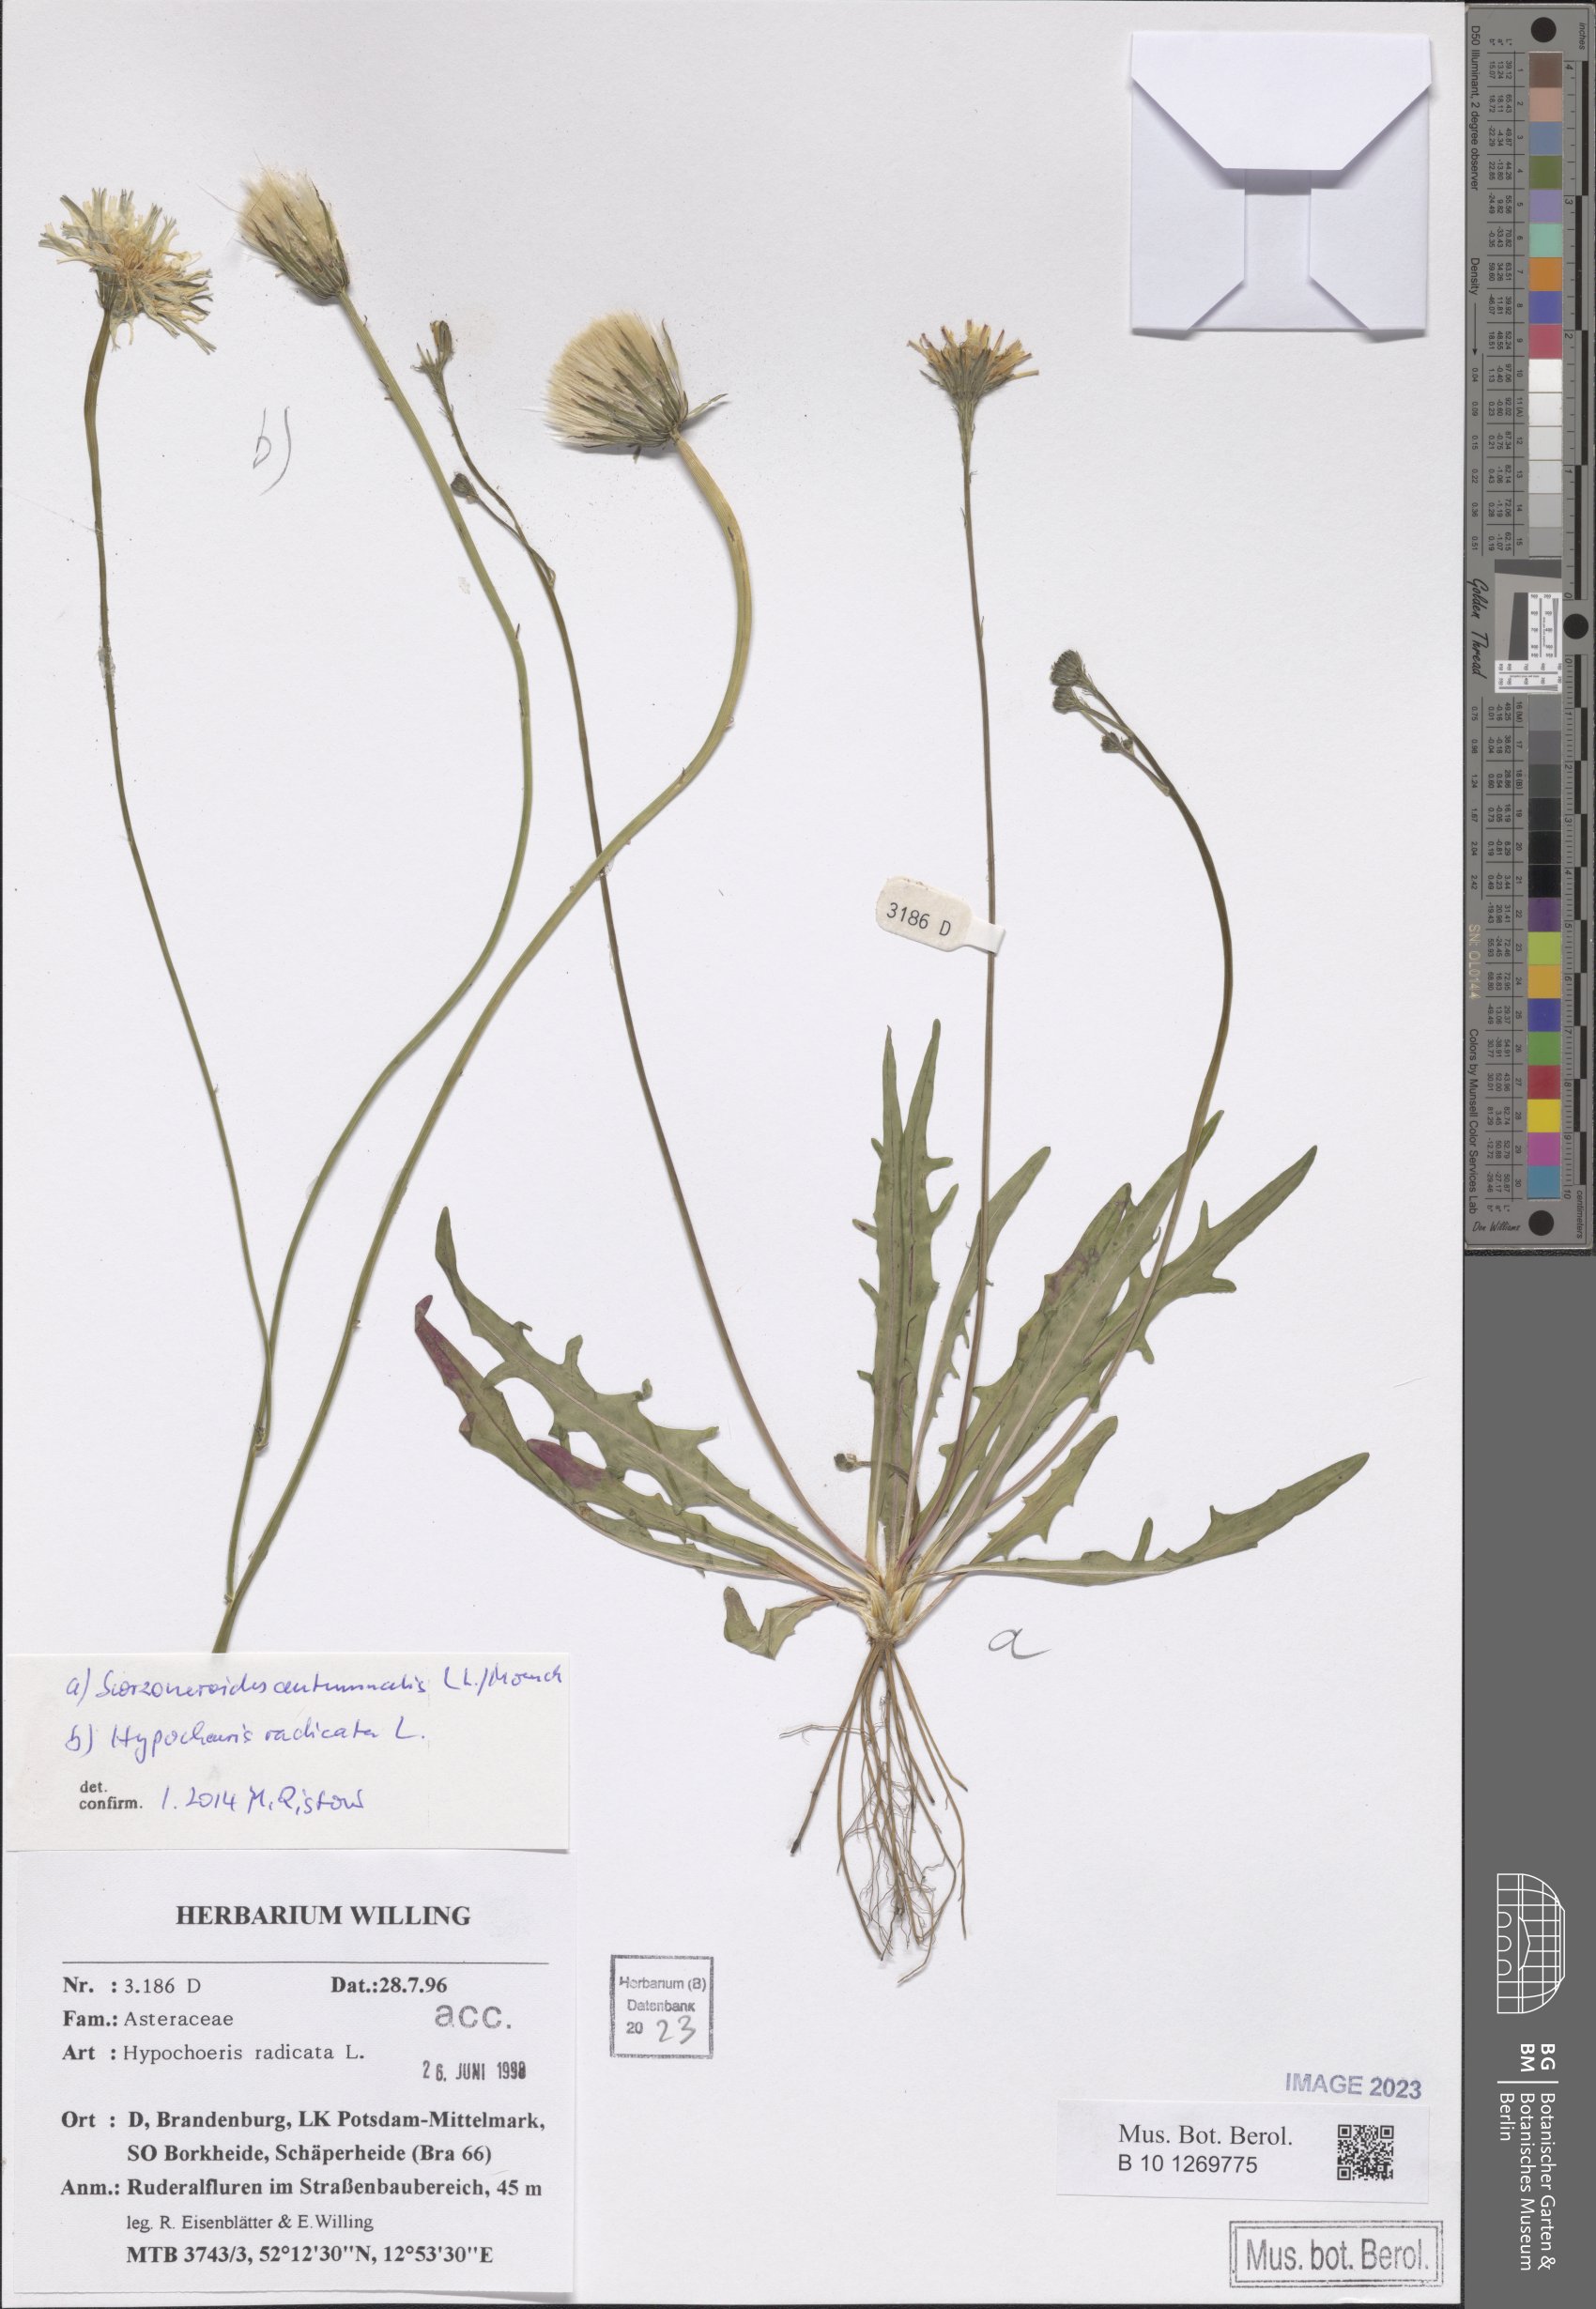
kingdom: Plantae
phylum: Tracheophyta
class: Magnoliopsida
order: Asterales
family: Asteraceae
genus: Scorzoneroides
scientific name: Scorzoneroides autumnalis
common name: Autumn hawkbit
